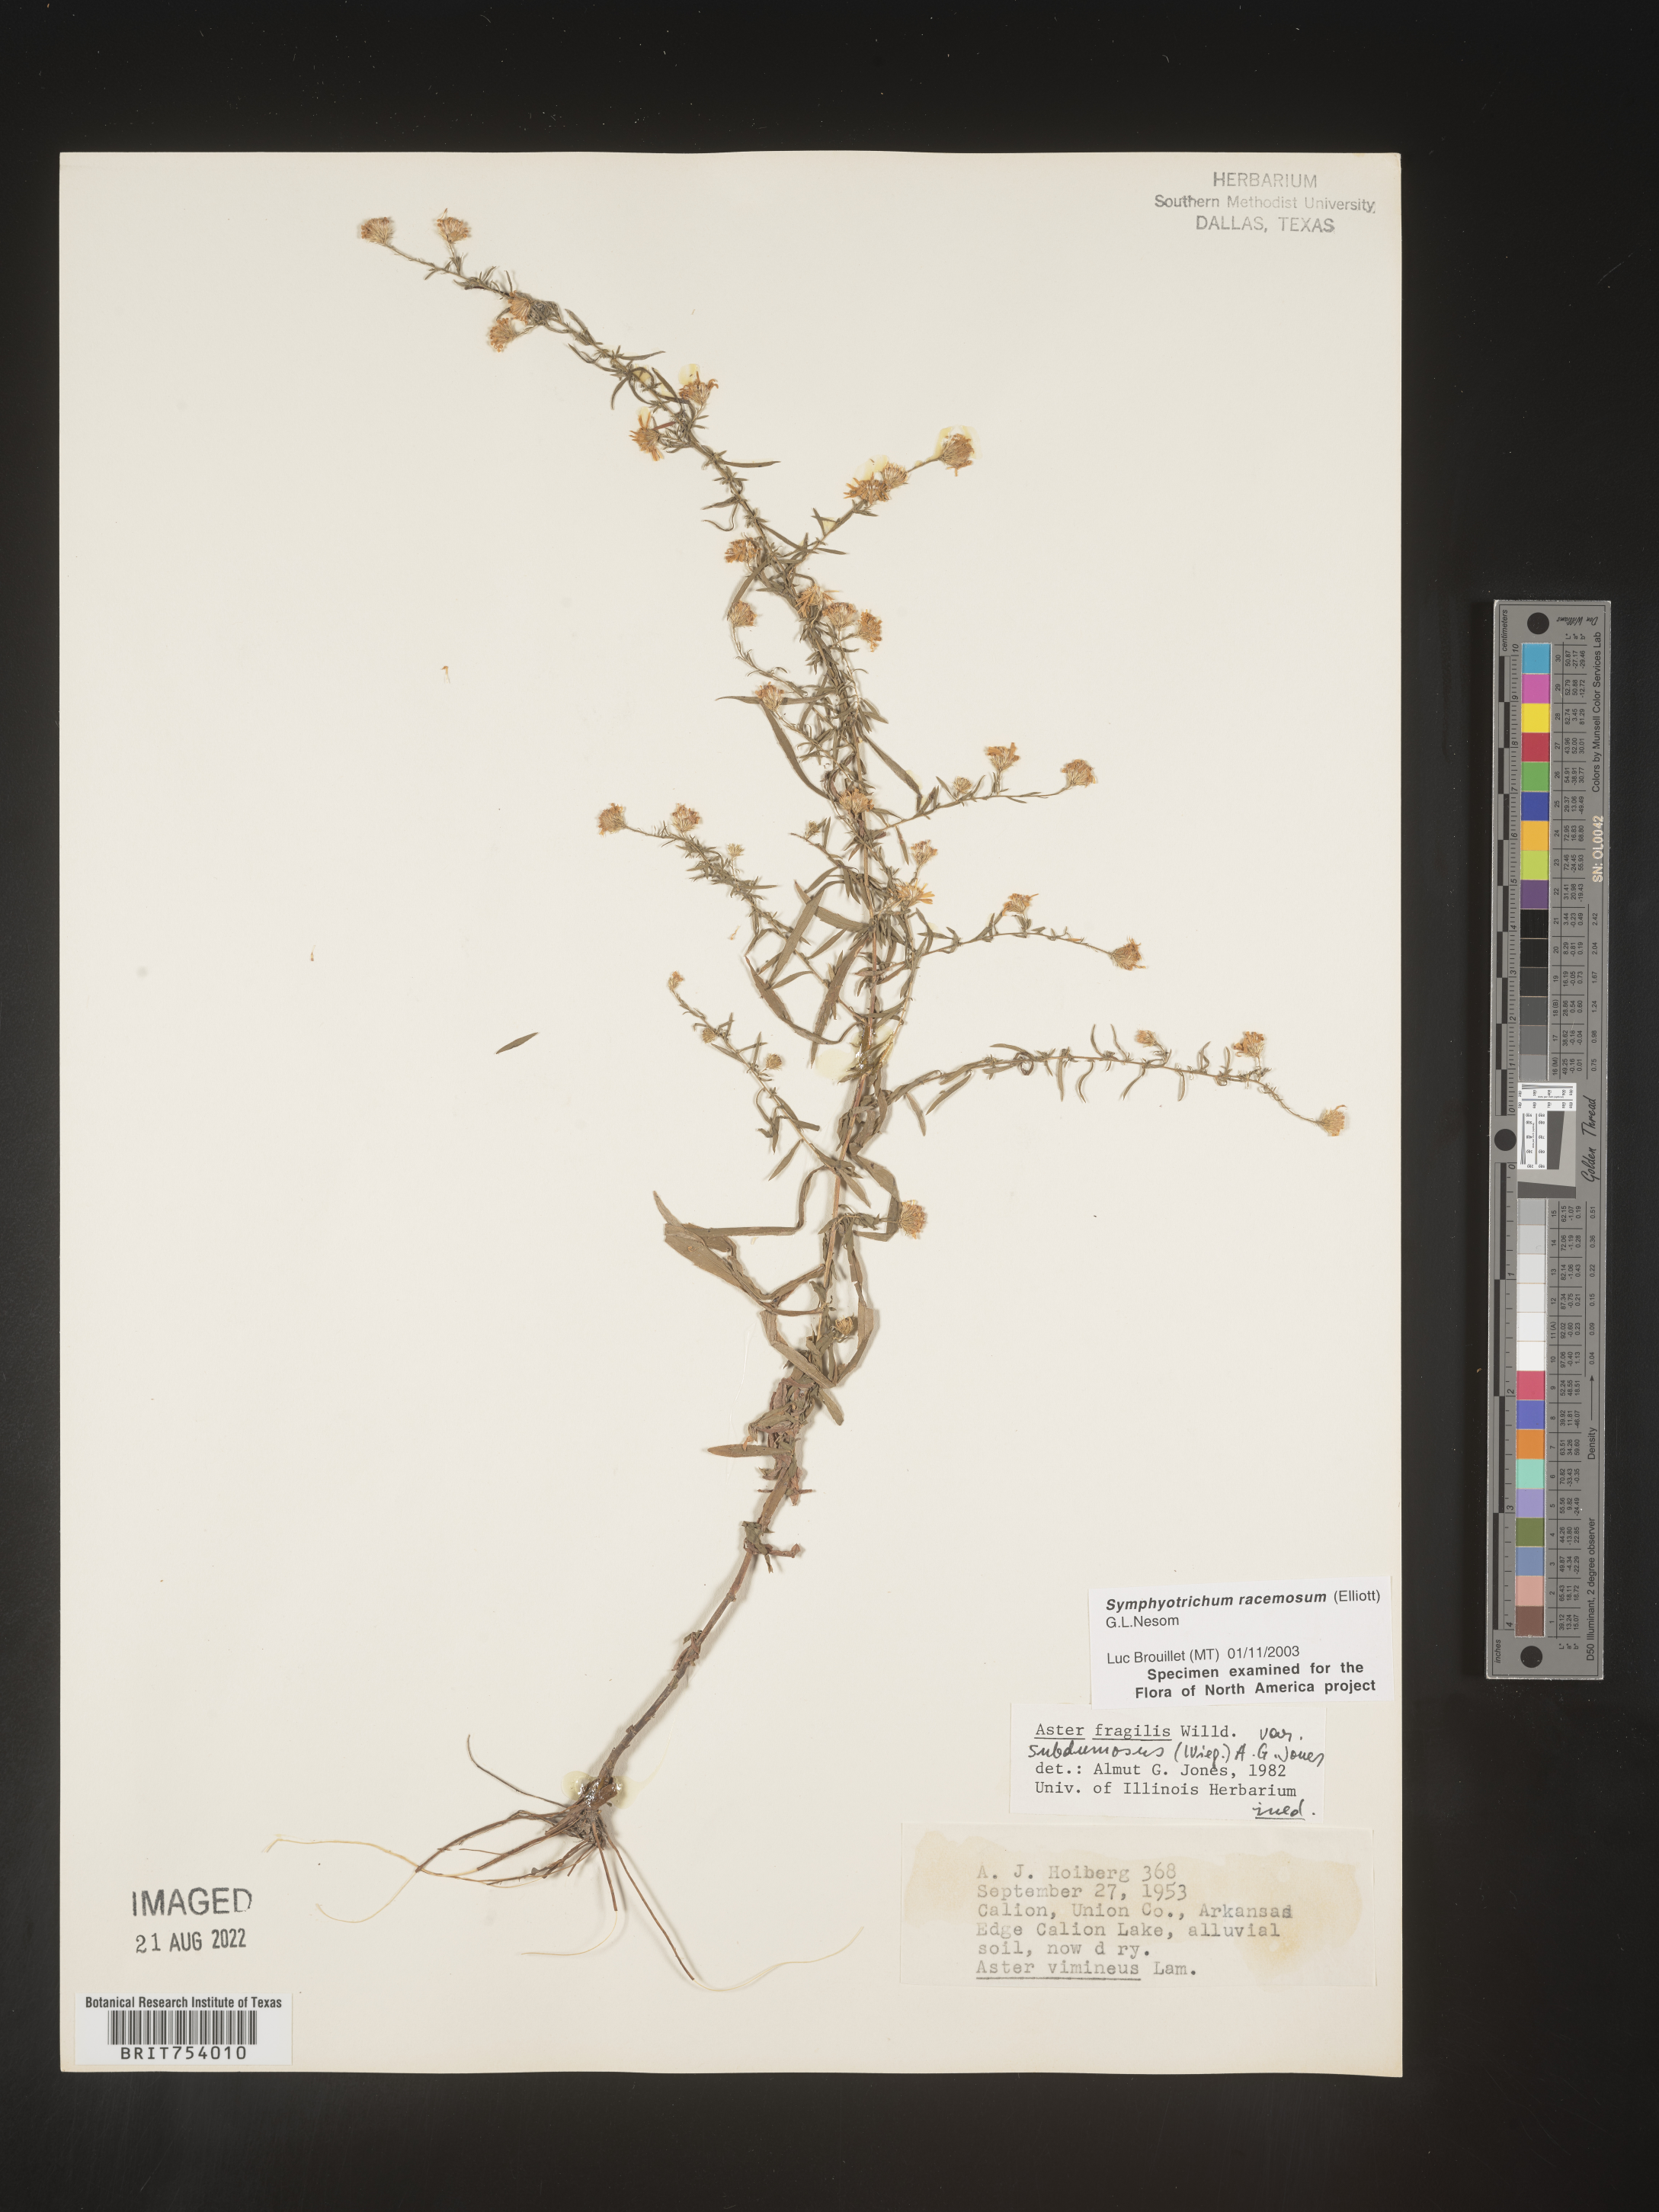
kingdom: Plantae
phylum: Tracheophyta
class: Magnoliopsida
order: Asterales
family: Asteraceae
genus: Symphyotrichum
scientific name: Symphyotrichum racemosum
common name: Small white aster
